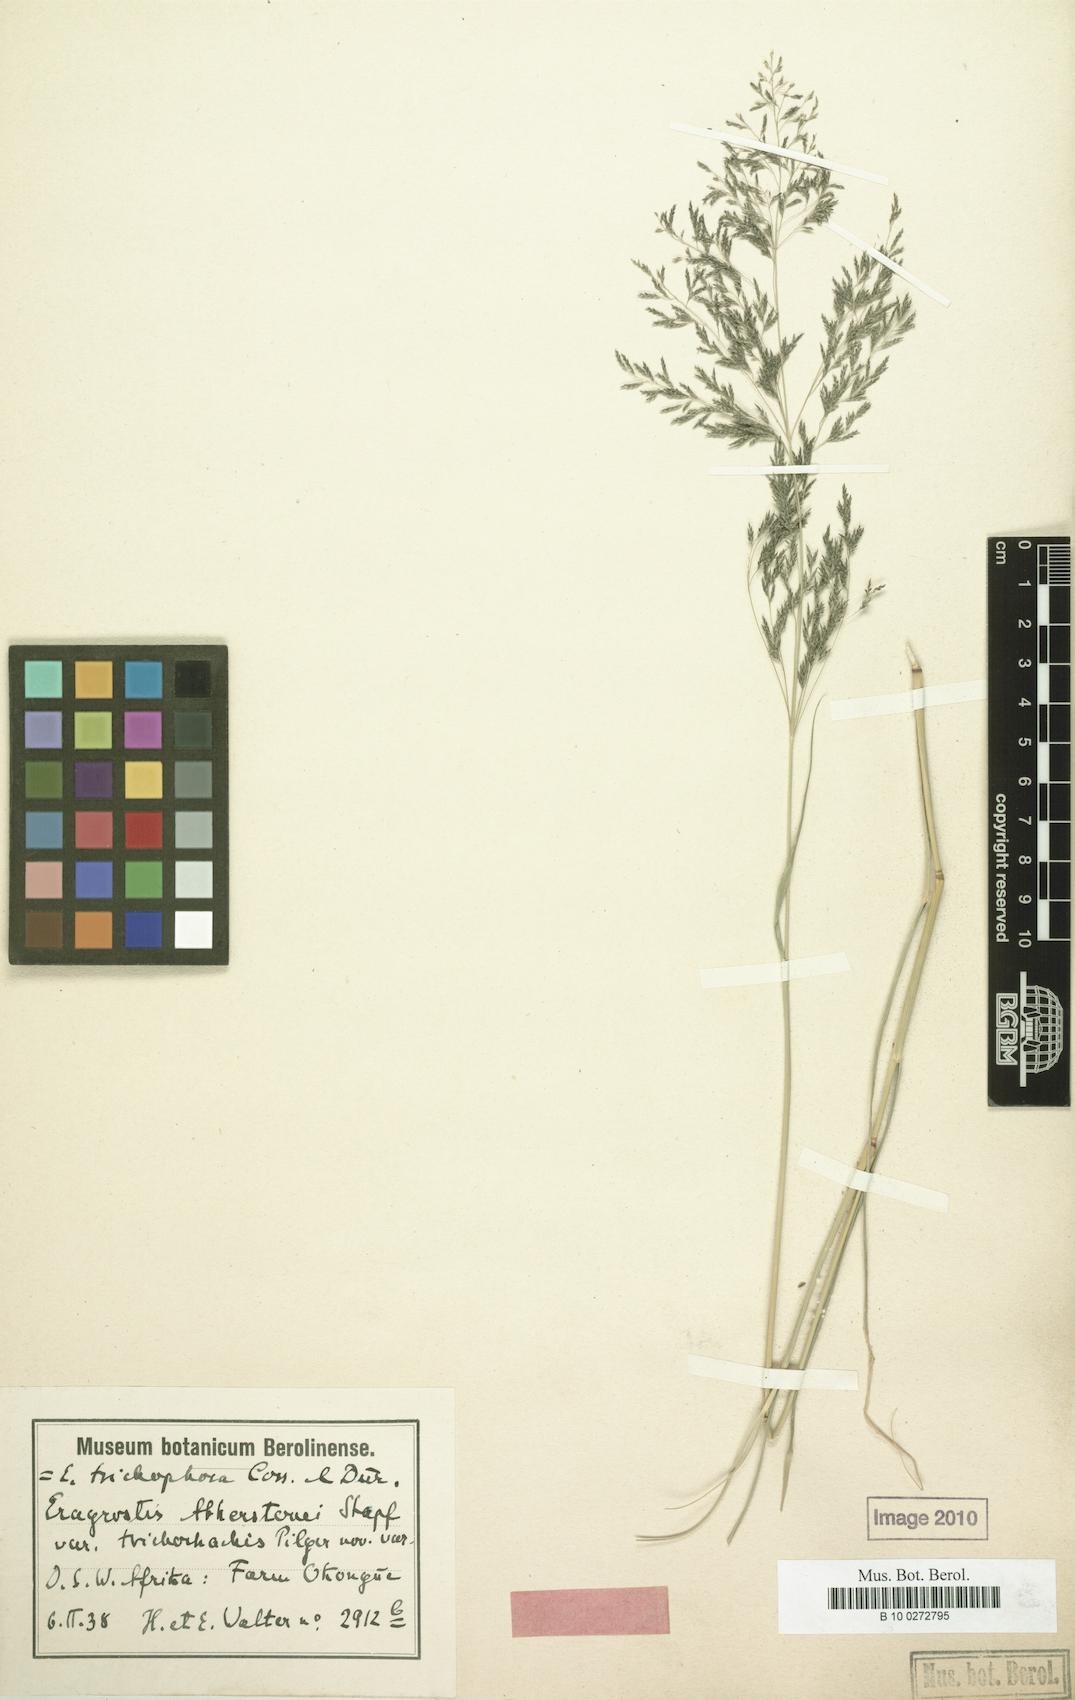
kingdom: Plantae
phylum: Tracheophyta
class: Liliopsida
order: Poales
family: Poaceae
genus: Eragrostis
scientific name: Eragrostis cylindriflora
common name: Cylinderflower lovegrass
